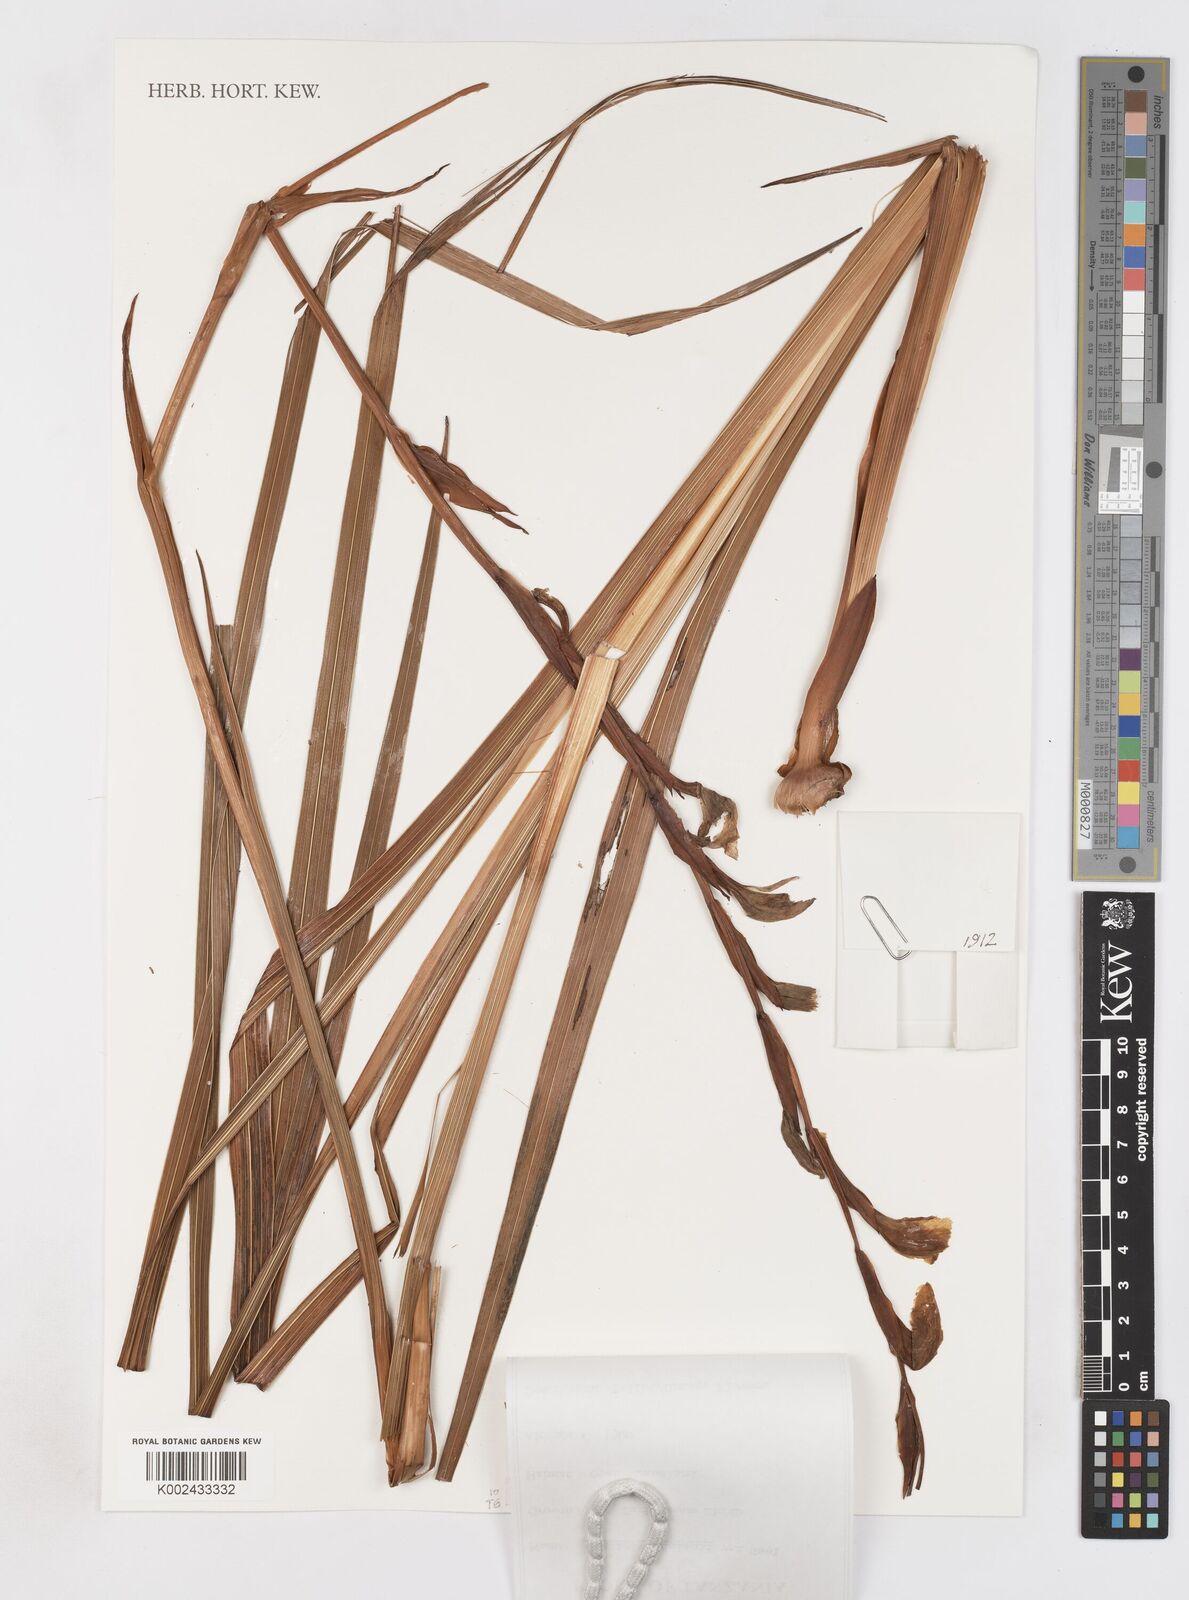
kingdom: Plantae
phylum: Tracheophyta
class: Liliopsida
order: Asparagales
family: Iridaceae
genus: Gladiolus
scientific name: Gladiolus dalenii
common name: Cornflag
